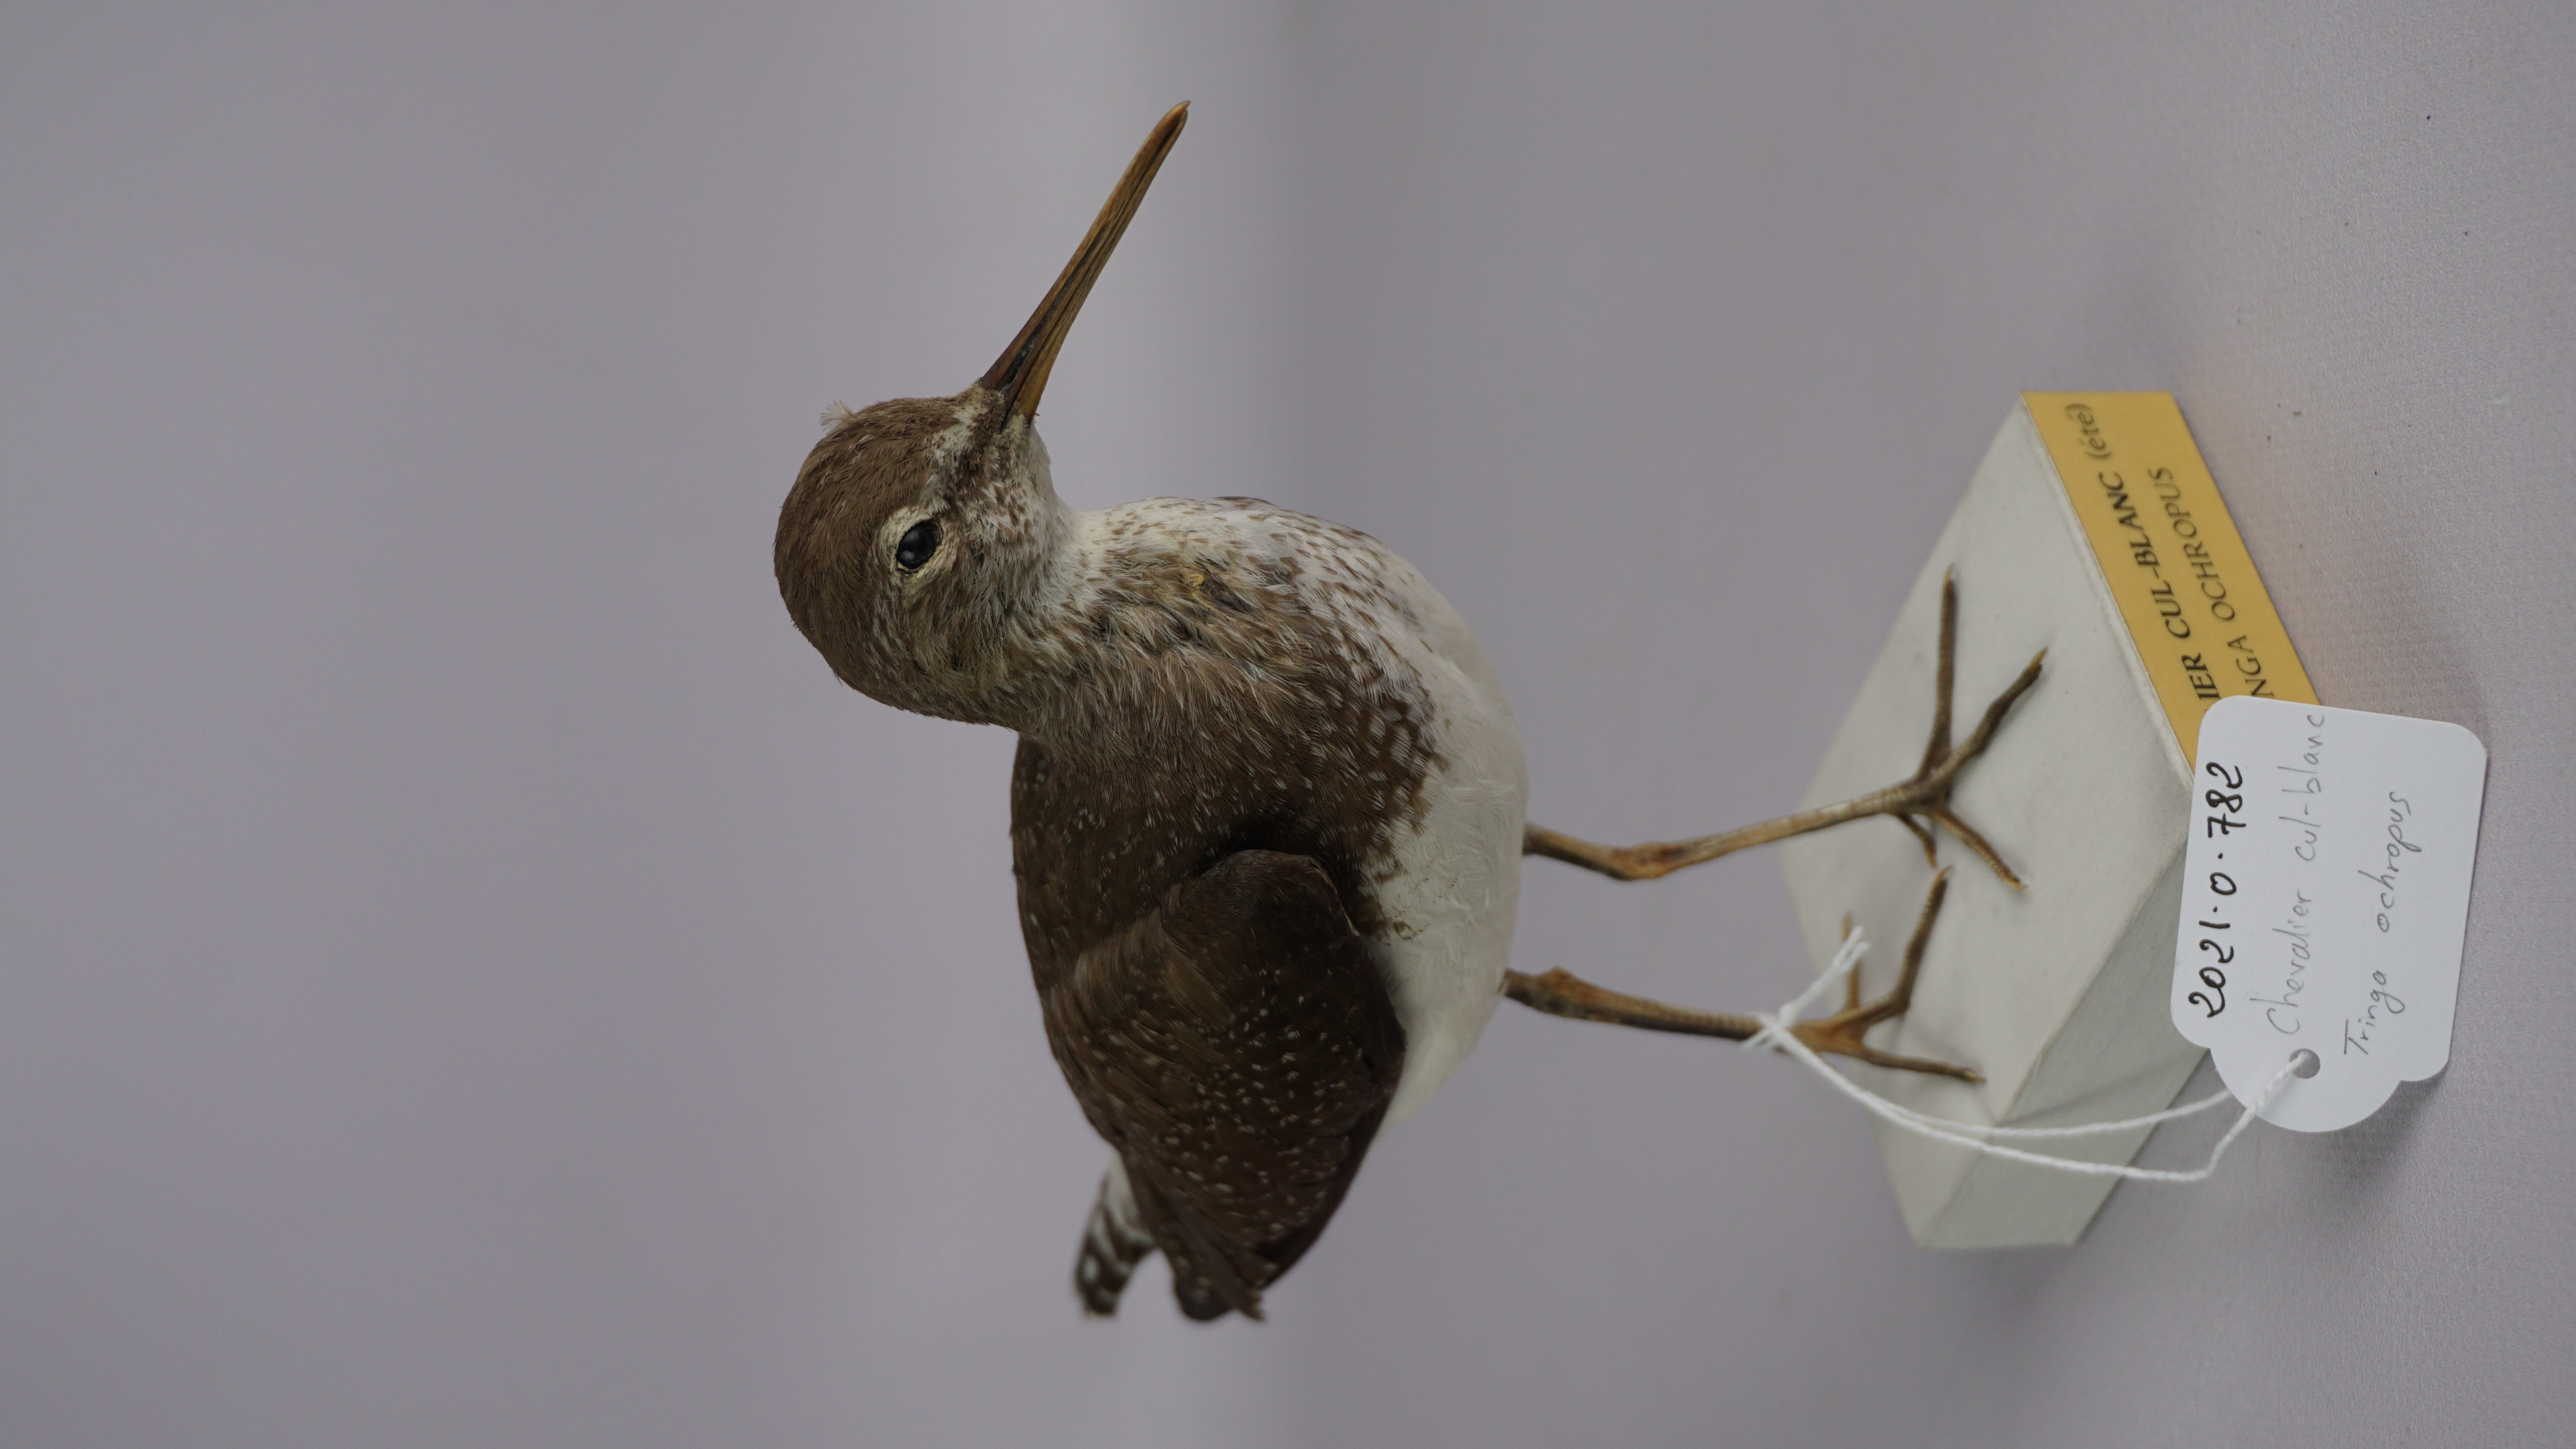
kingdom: Animalia
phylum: Chordata
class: Aves
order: Charadriiformes
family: Scolopacidae
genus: Tringa
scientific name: Tringa ochropus
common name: Green sandpiper
